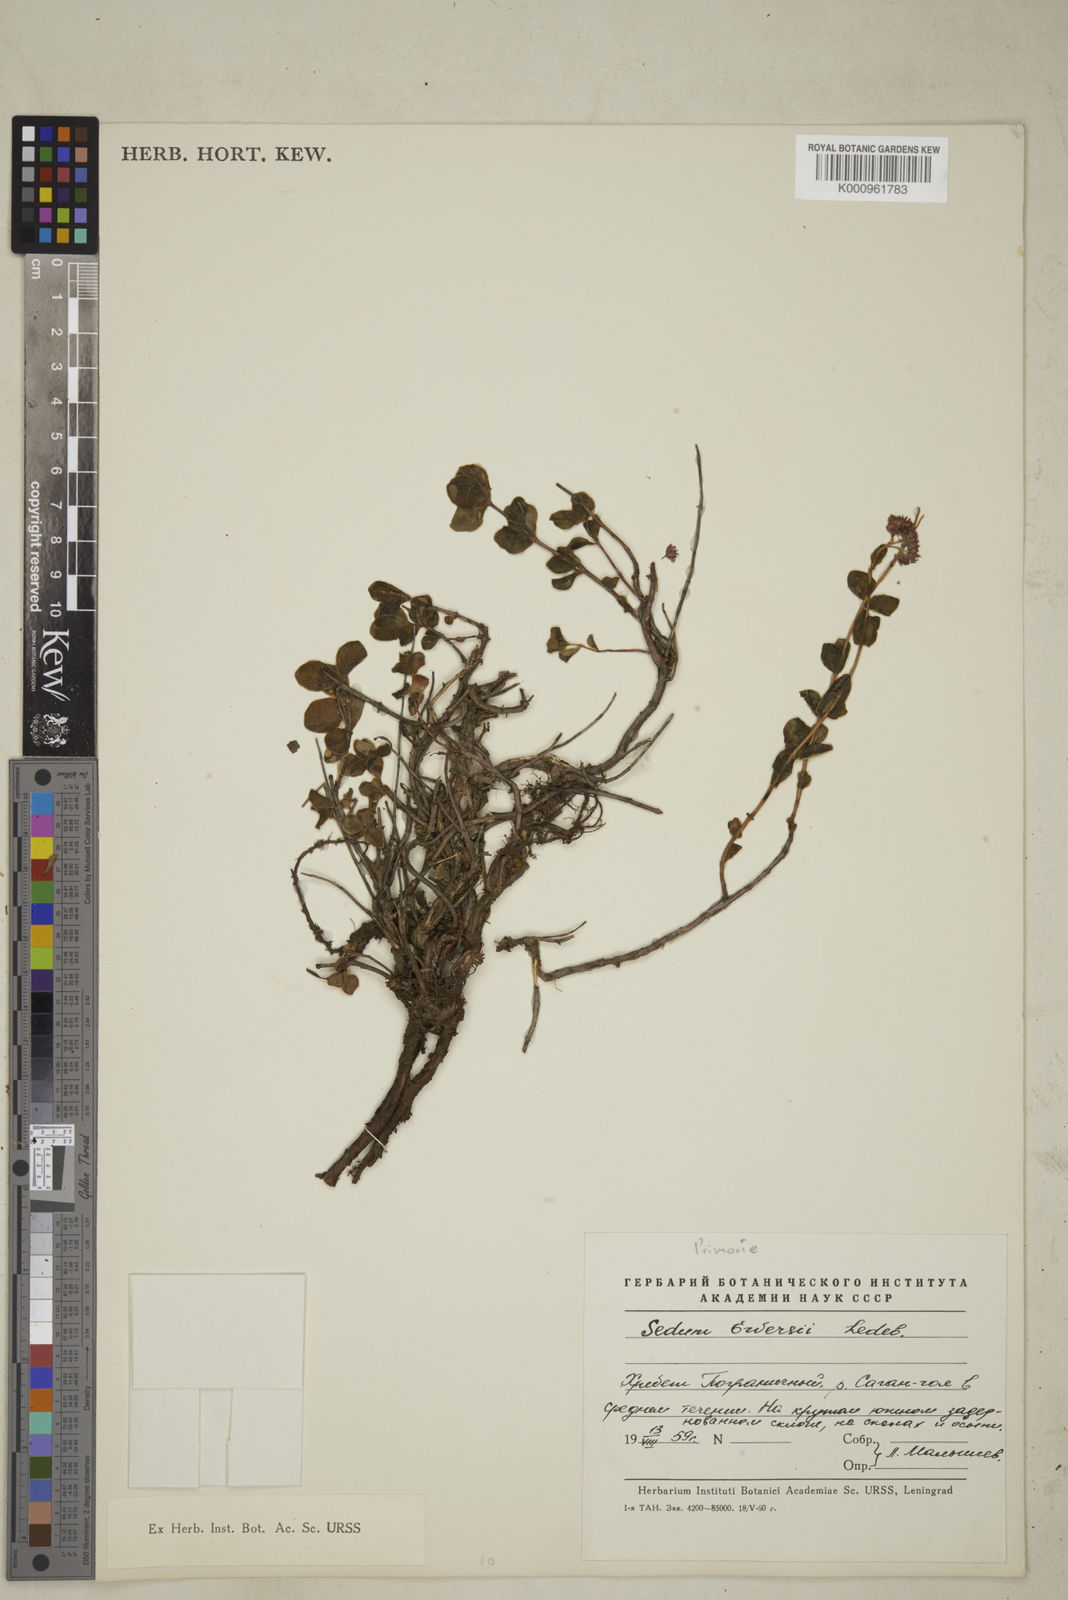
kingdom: Plantae
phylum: Tracheophyta
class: Magnoliopsida
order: Saxifragales
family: Crassulaceae
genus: Sedum
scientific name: Sedum
